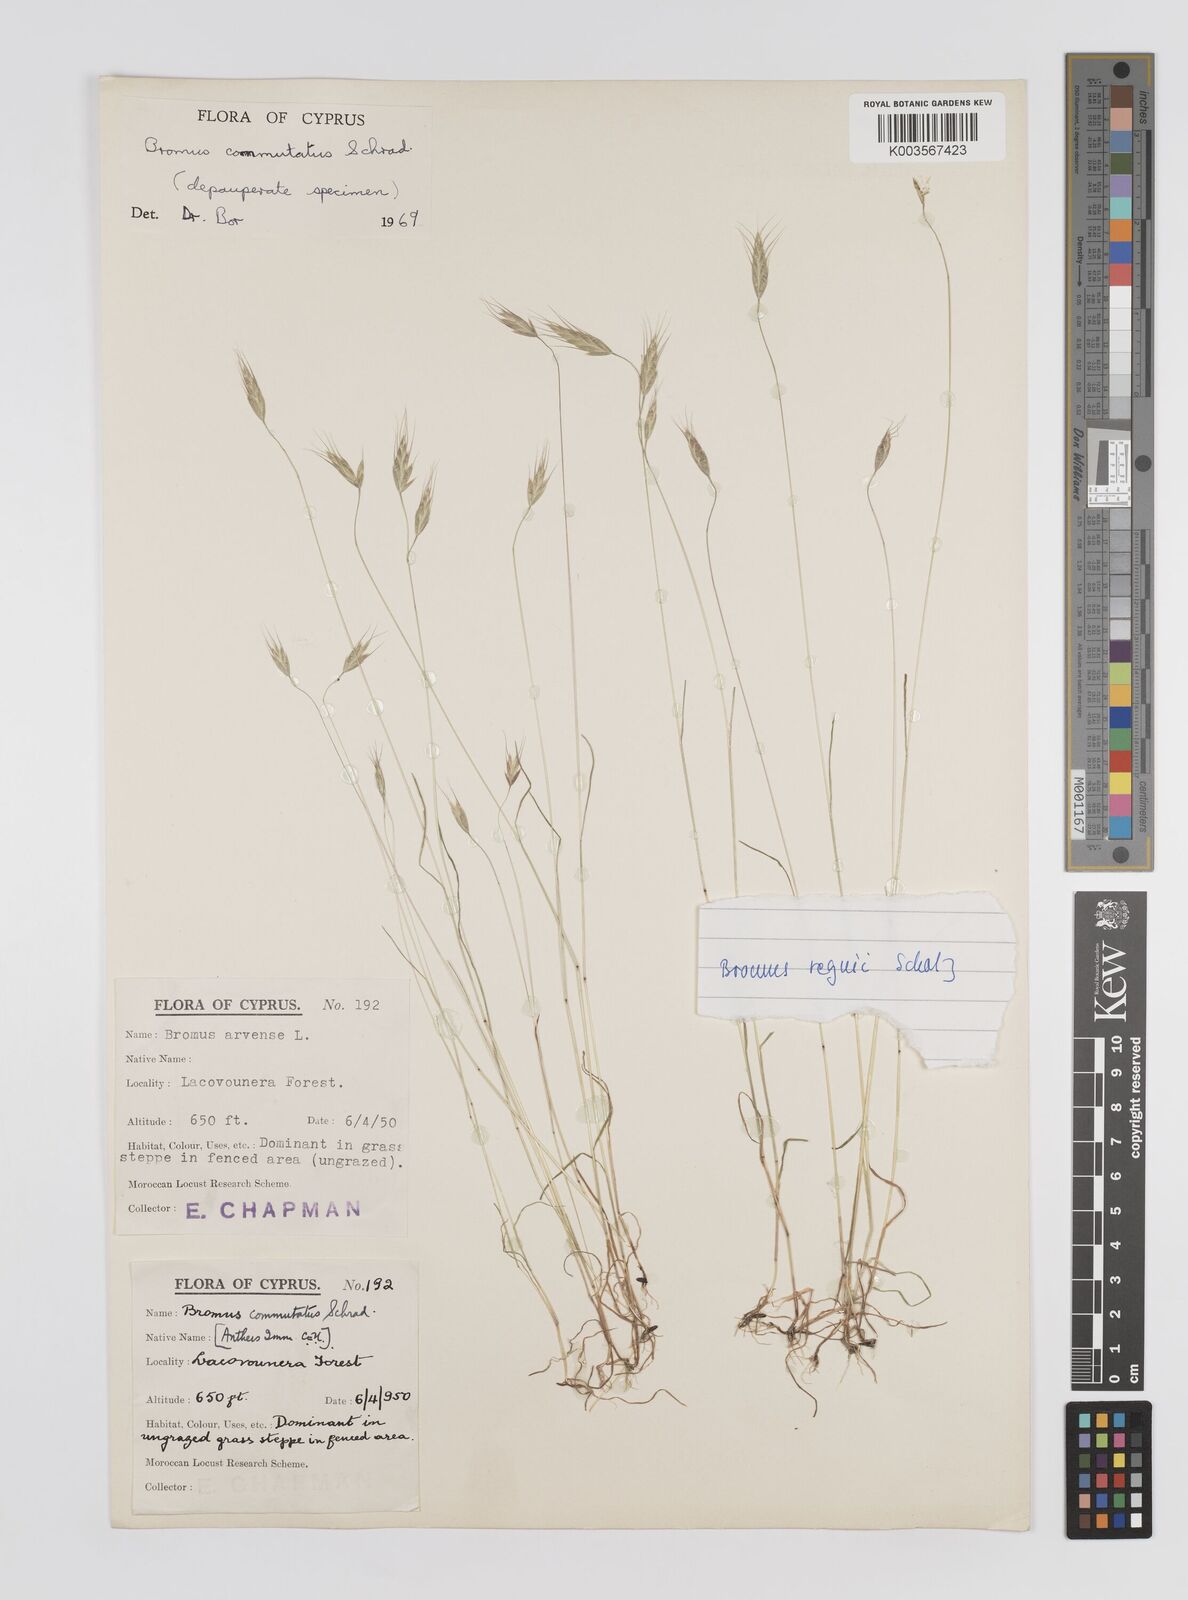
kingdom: Plantae
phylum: Tracheophyta
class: Liliopsida
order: Poales
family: Poaceae
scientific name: Poaceae
